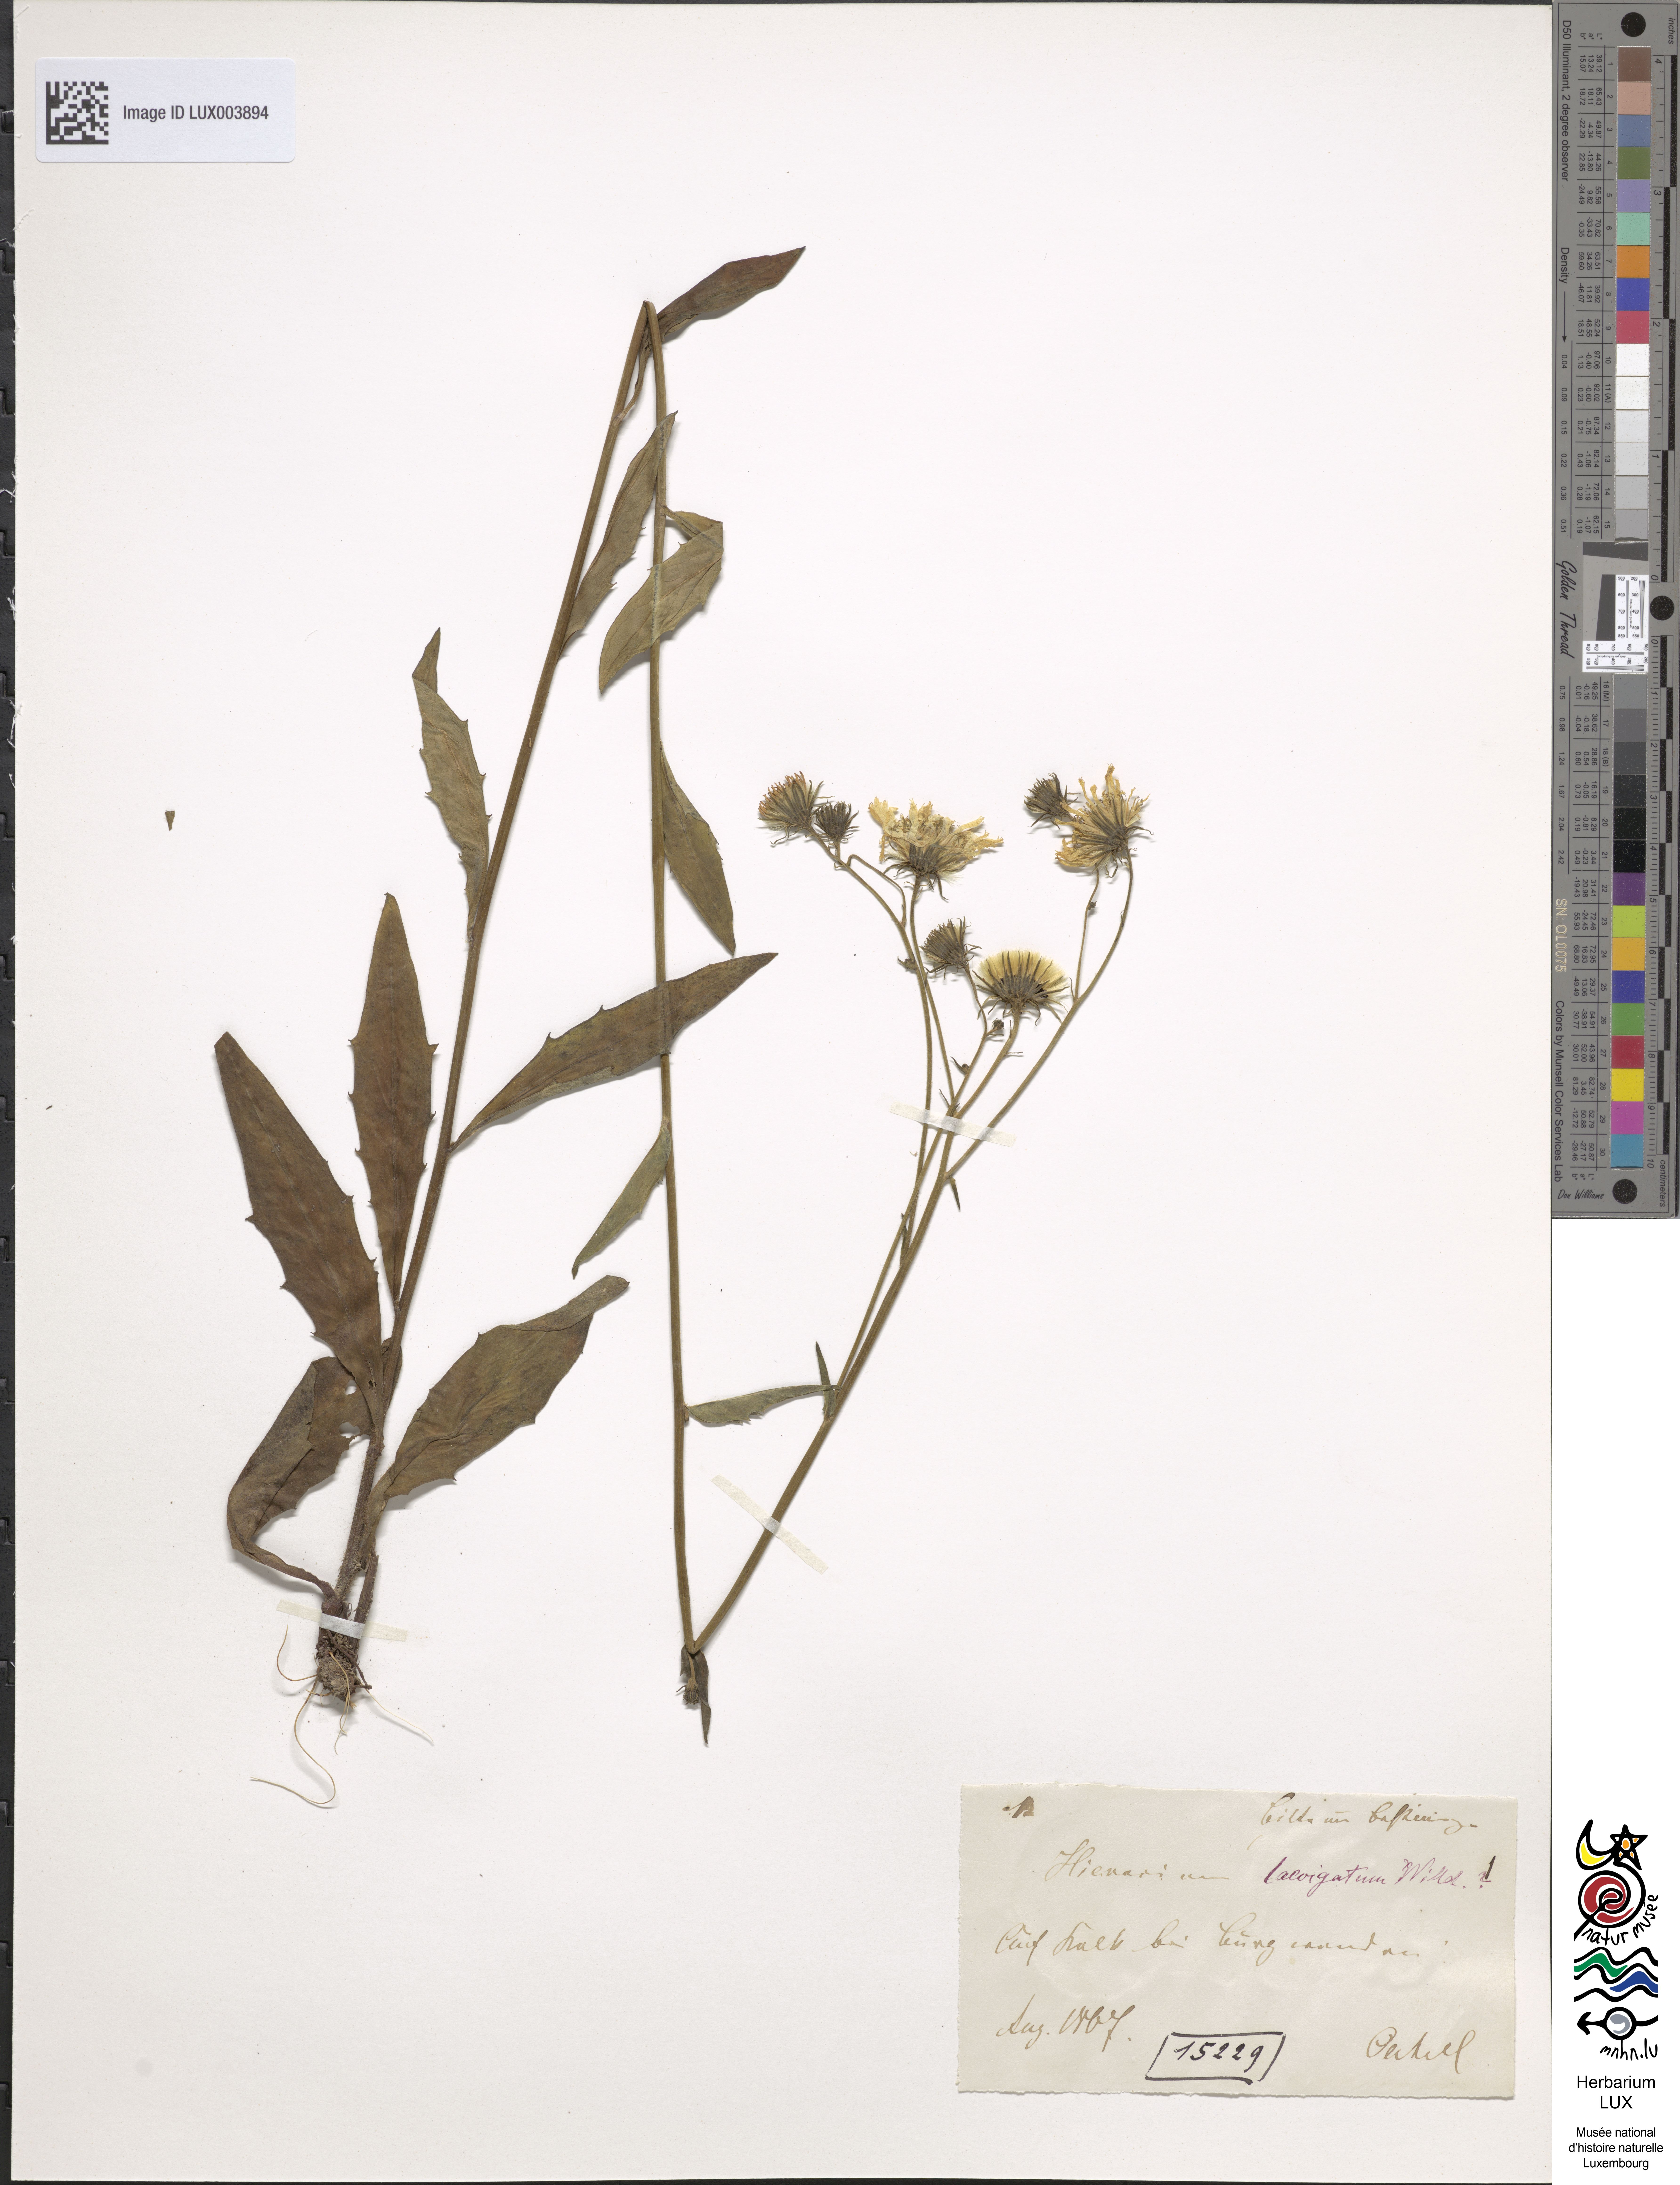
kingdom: Plantae
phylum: Tracheophyta
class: Magnoliopsida
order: Asterales
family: Asteraceae
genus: Hieracium
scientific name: Hieracium laevigatum
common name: Smooth hawkweed
